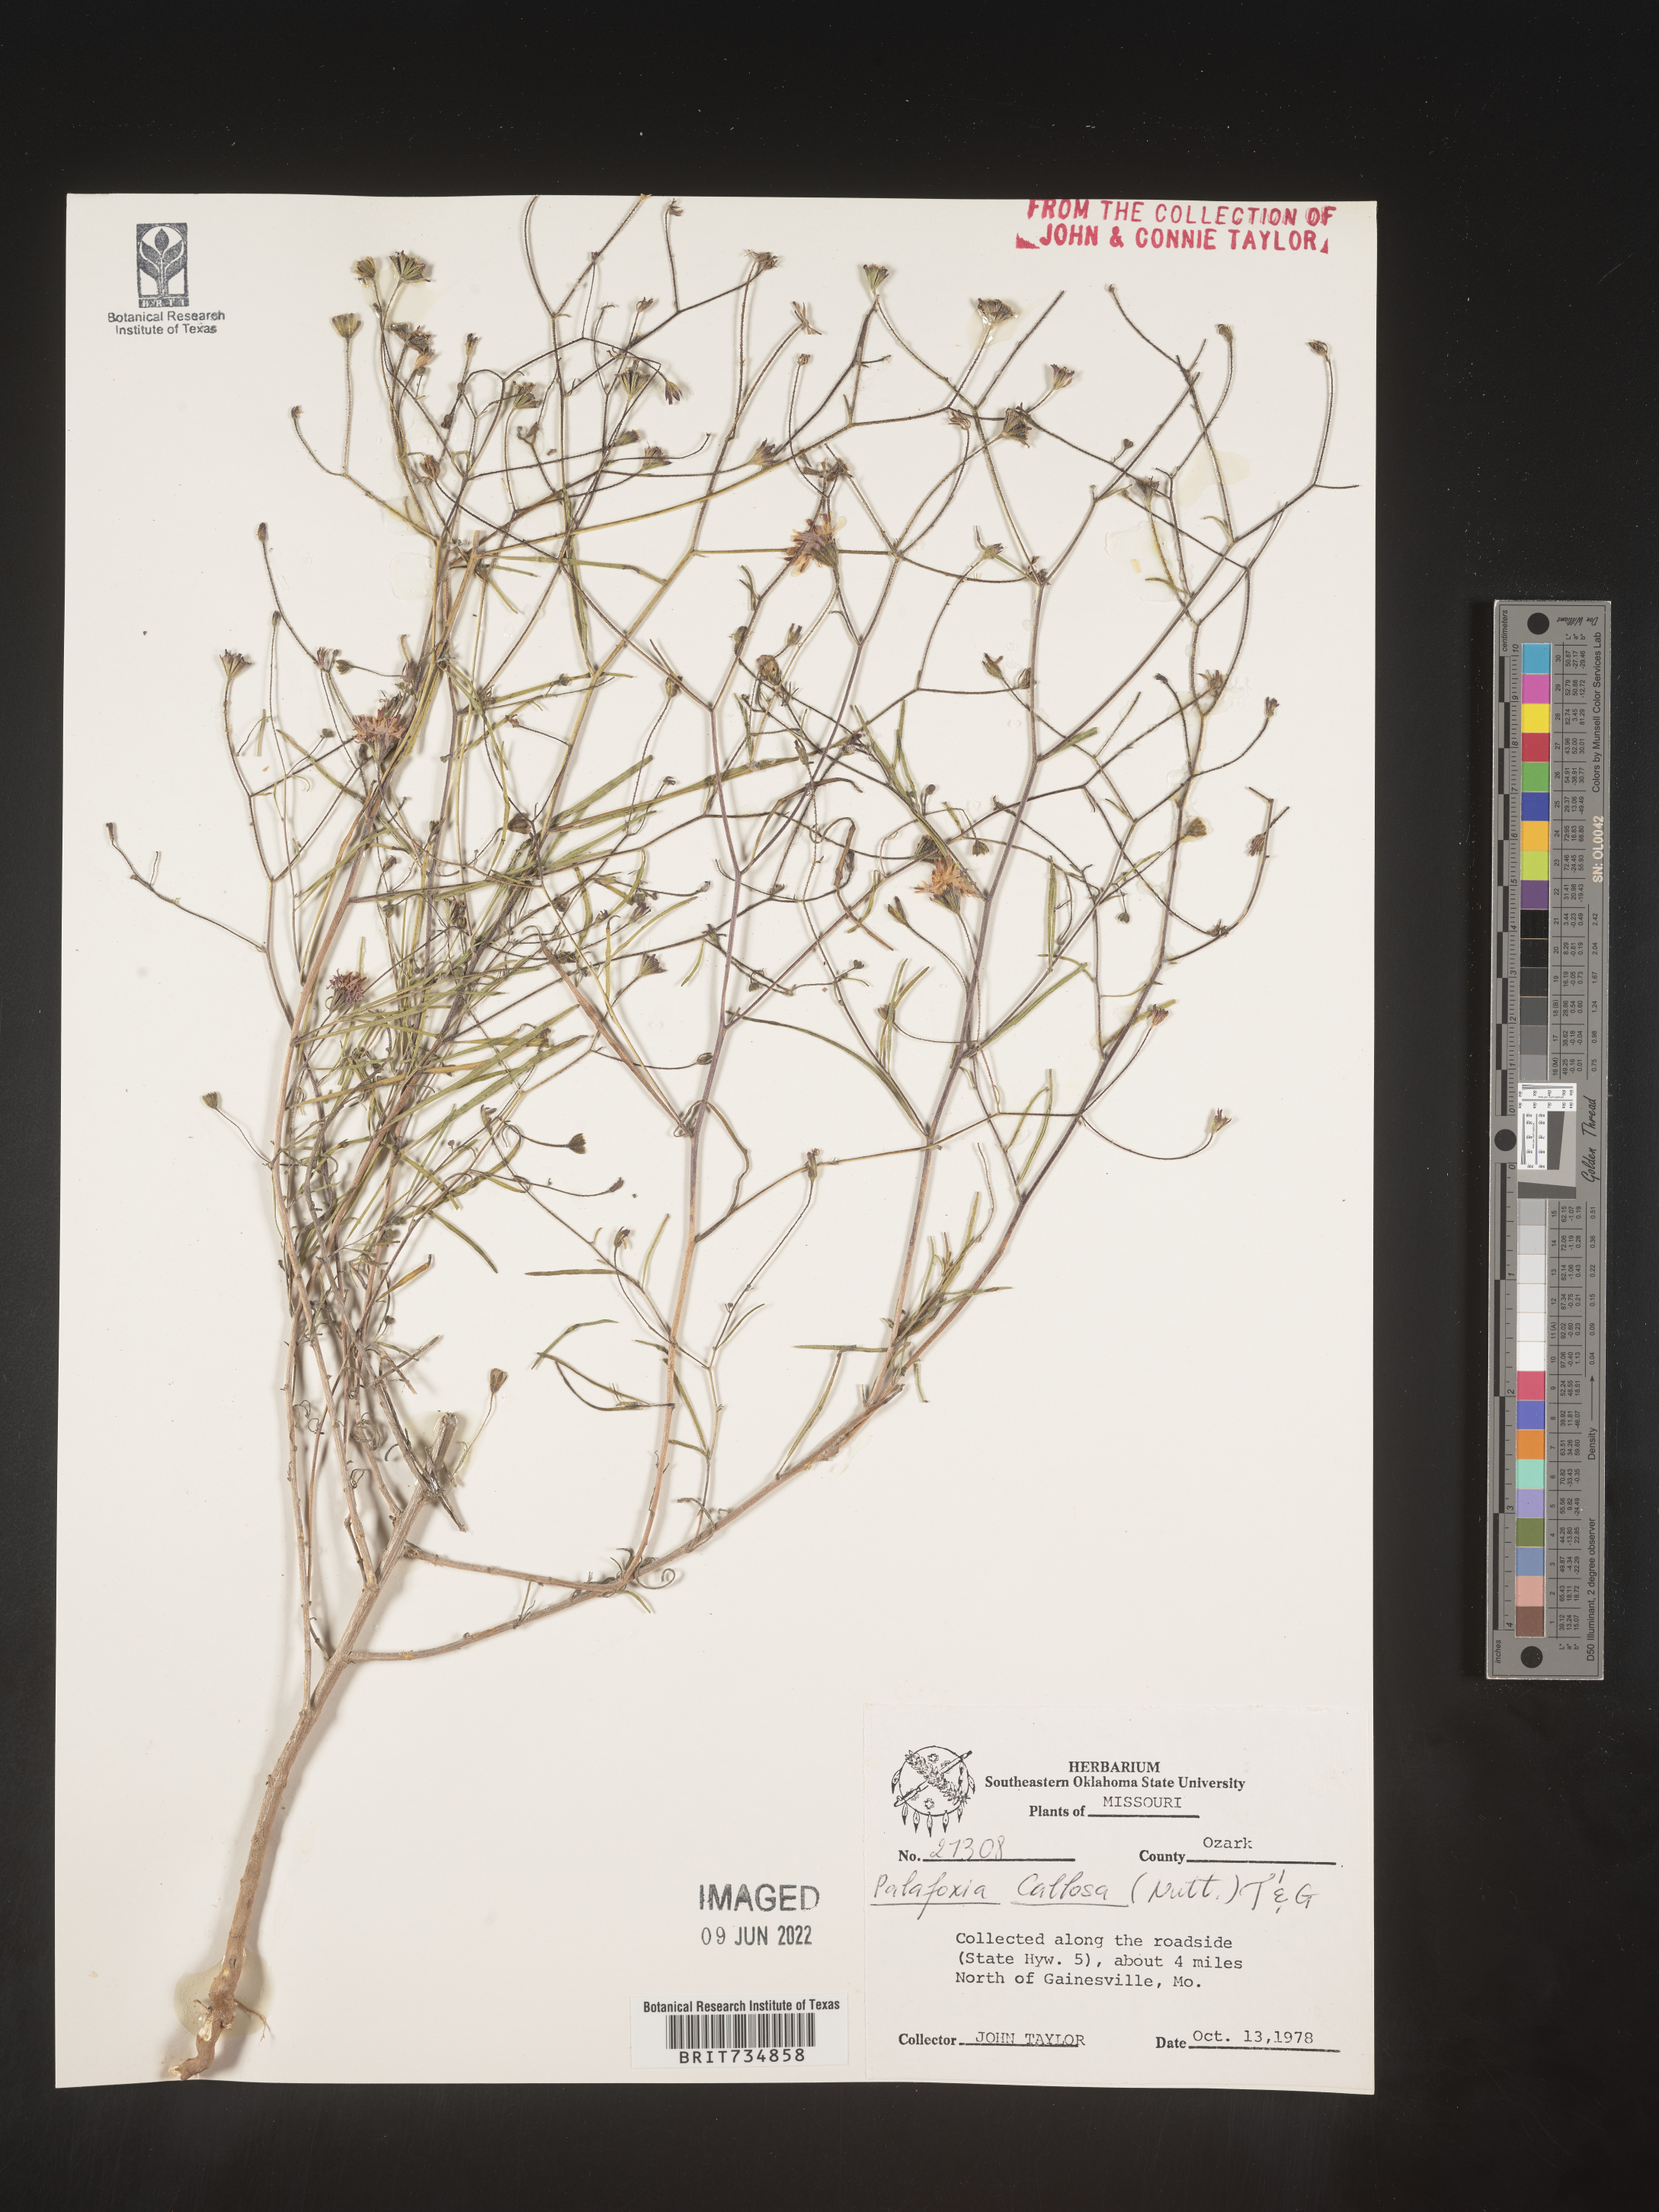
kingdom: Plantae
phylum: Tracheophyta
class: Magnoliopsida
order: Asterales
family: Asteraceae
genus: Palafoxia
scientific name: Palafoxia callosa
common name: Small palafox
